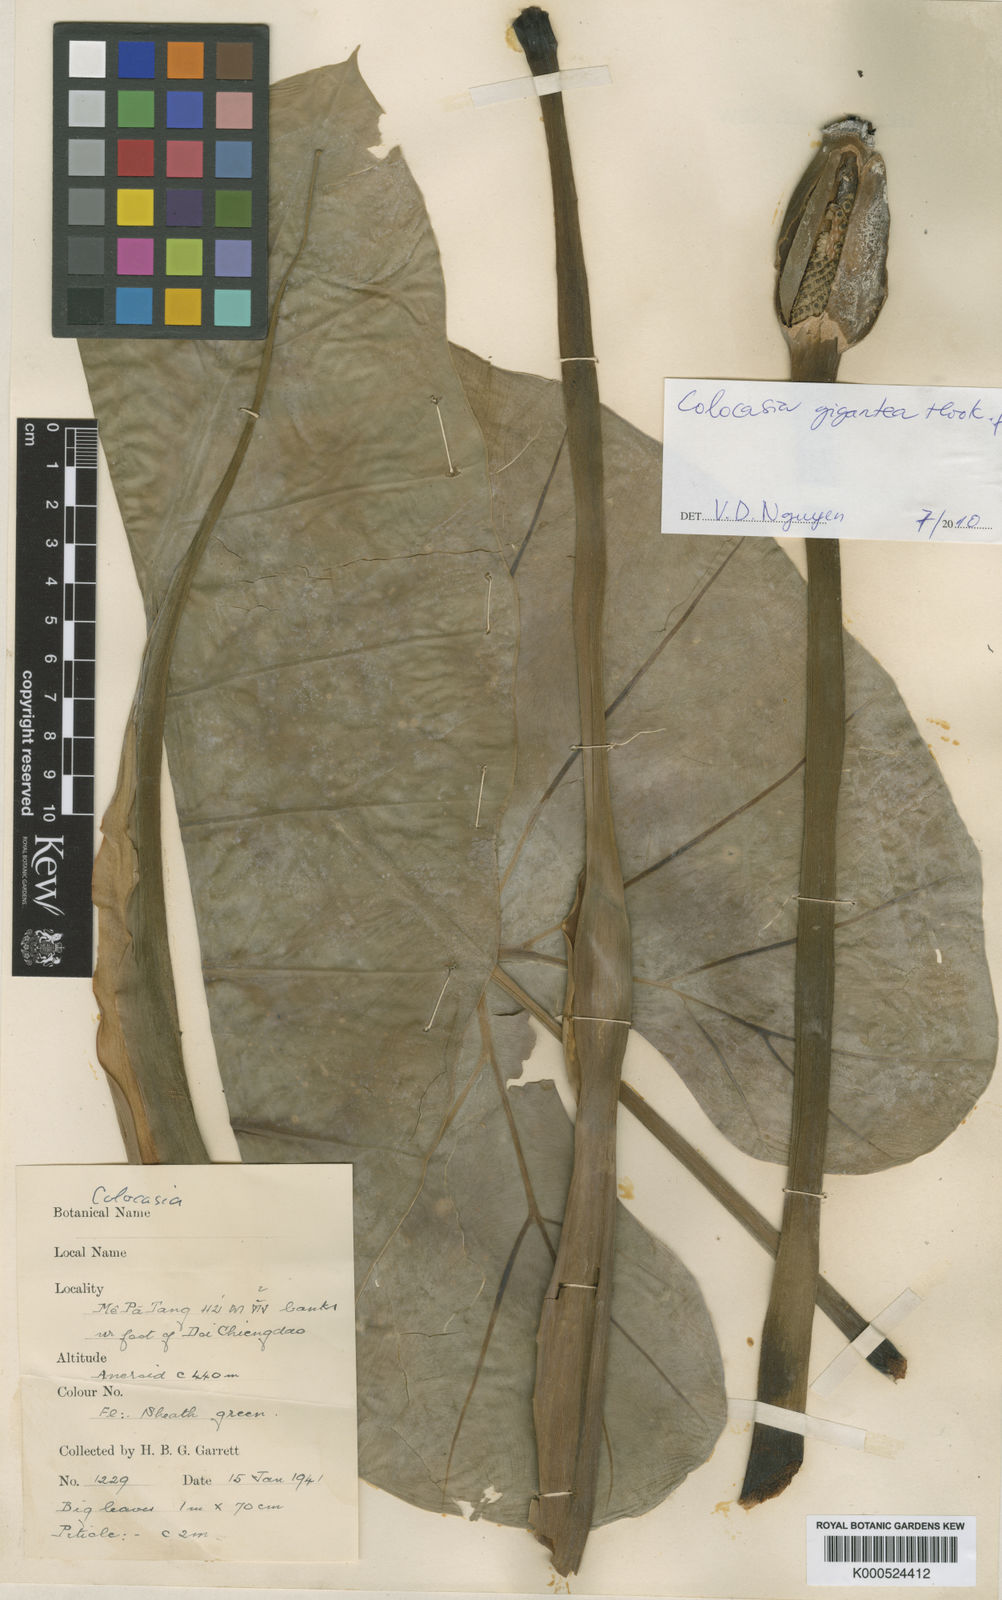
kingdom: Plantae
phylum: Tracheophyta
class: Liliopsida
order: Alismatales
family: Araceae
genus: Leucocasia
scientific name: Leucocasia gigantea
